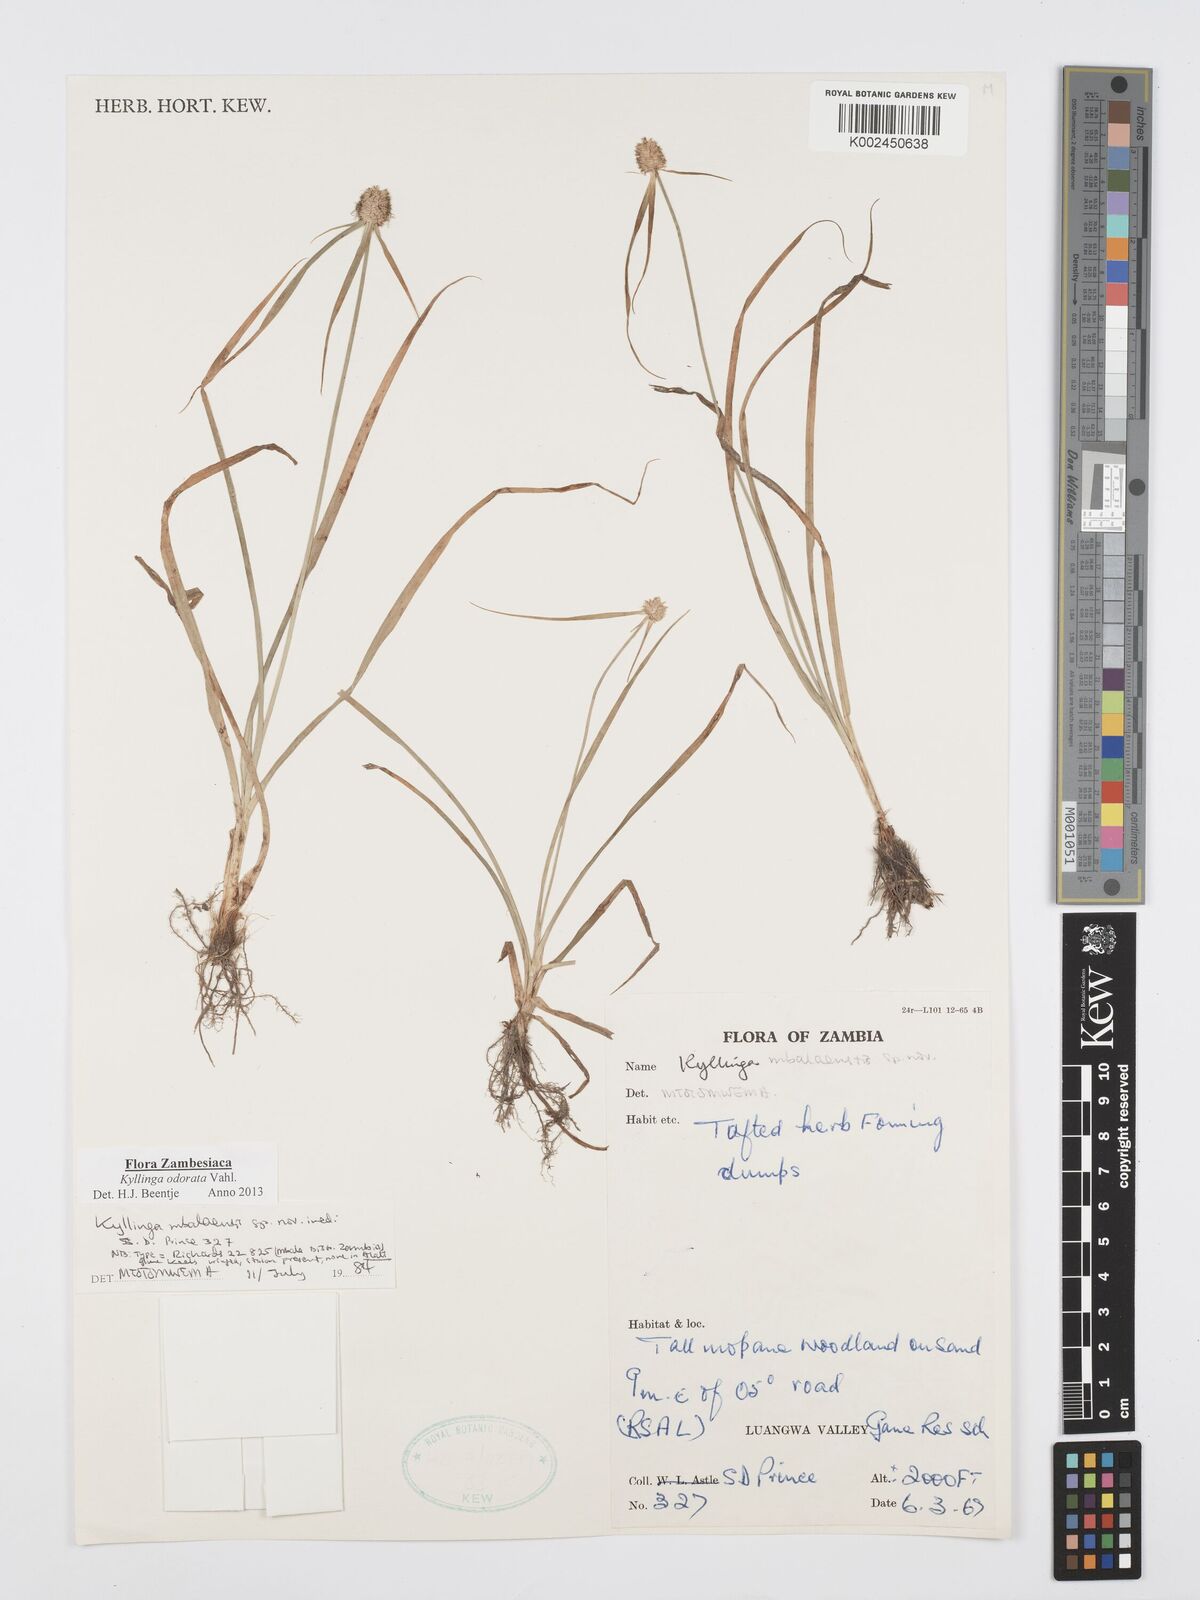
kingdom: Plantae
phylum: Tracheophyta
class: Liliopsida
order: Poales
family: Cyperaceae
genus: Cyperus
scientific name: Cyperus
